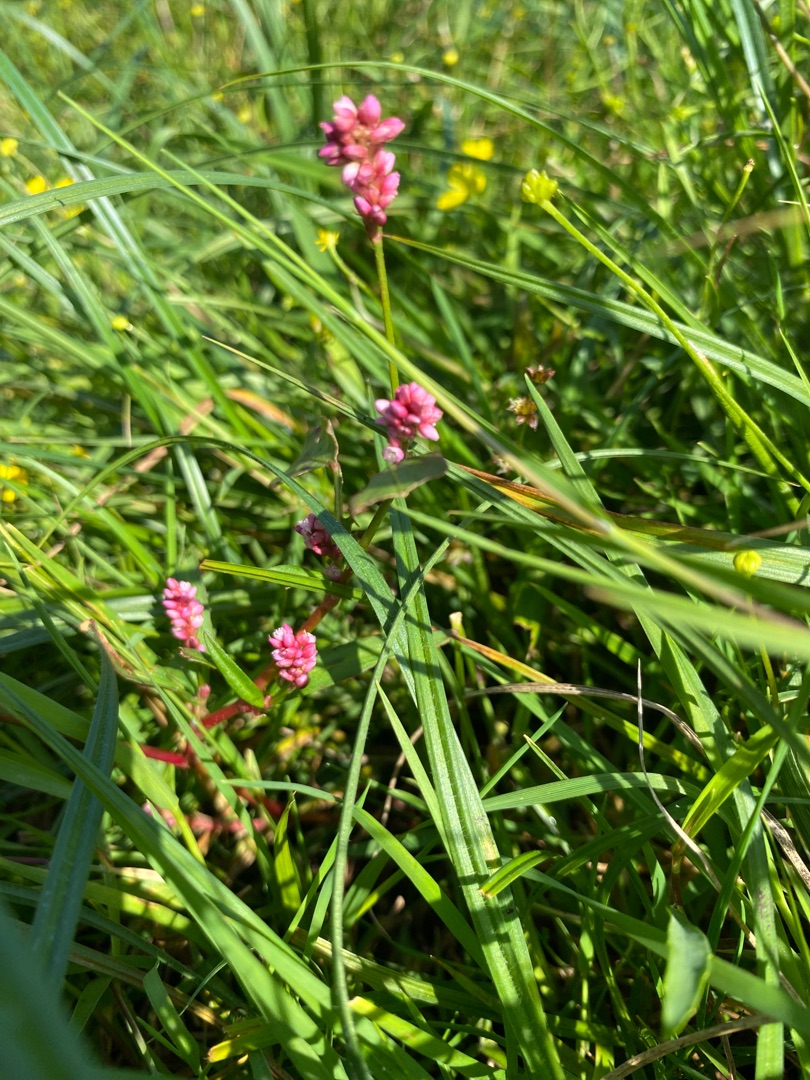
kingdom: Plantae
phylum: Tracheophyta
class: Magnoliopsida
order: Caryophyllales
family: Polygonaceae
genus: Persicaria
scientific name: Persicaria maculosa
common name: Fersken-pileurt
